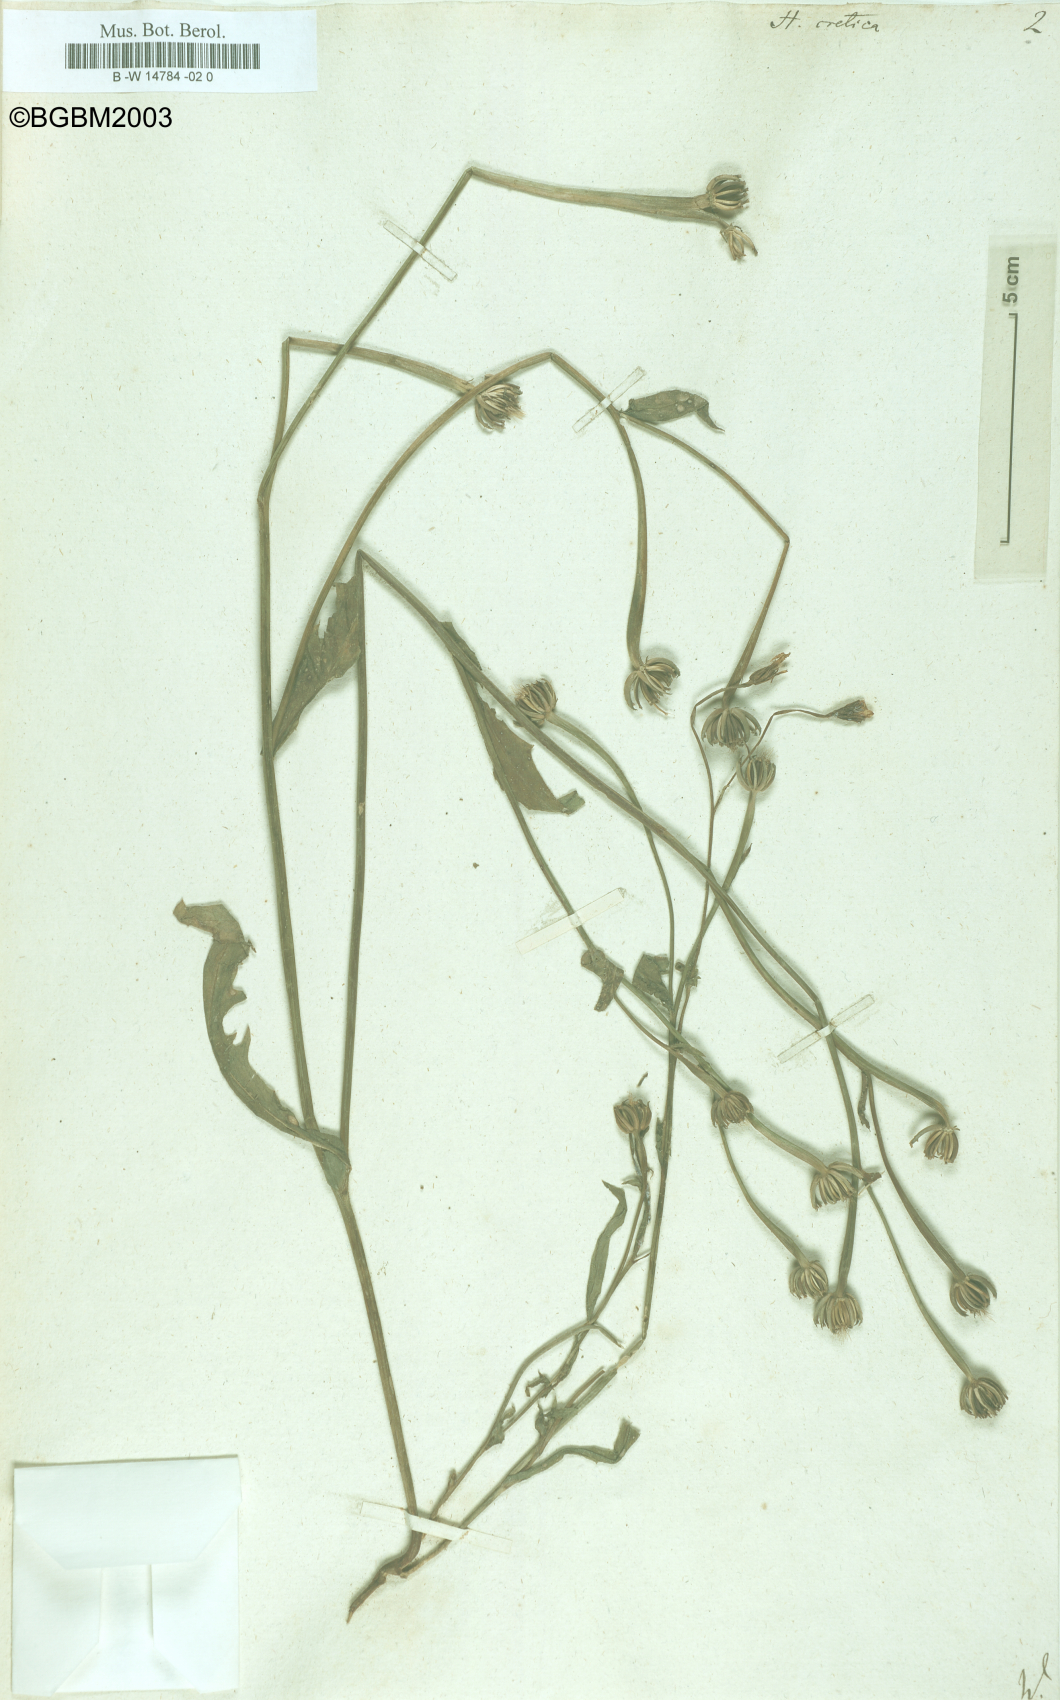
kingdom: Plantae
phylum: Tracheophyta
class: Magnoliopsida
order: Asterales
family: Asteraceae
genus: Hedypnois
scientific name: Hedypnois cretica
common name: Scaly hawkbit
